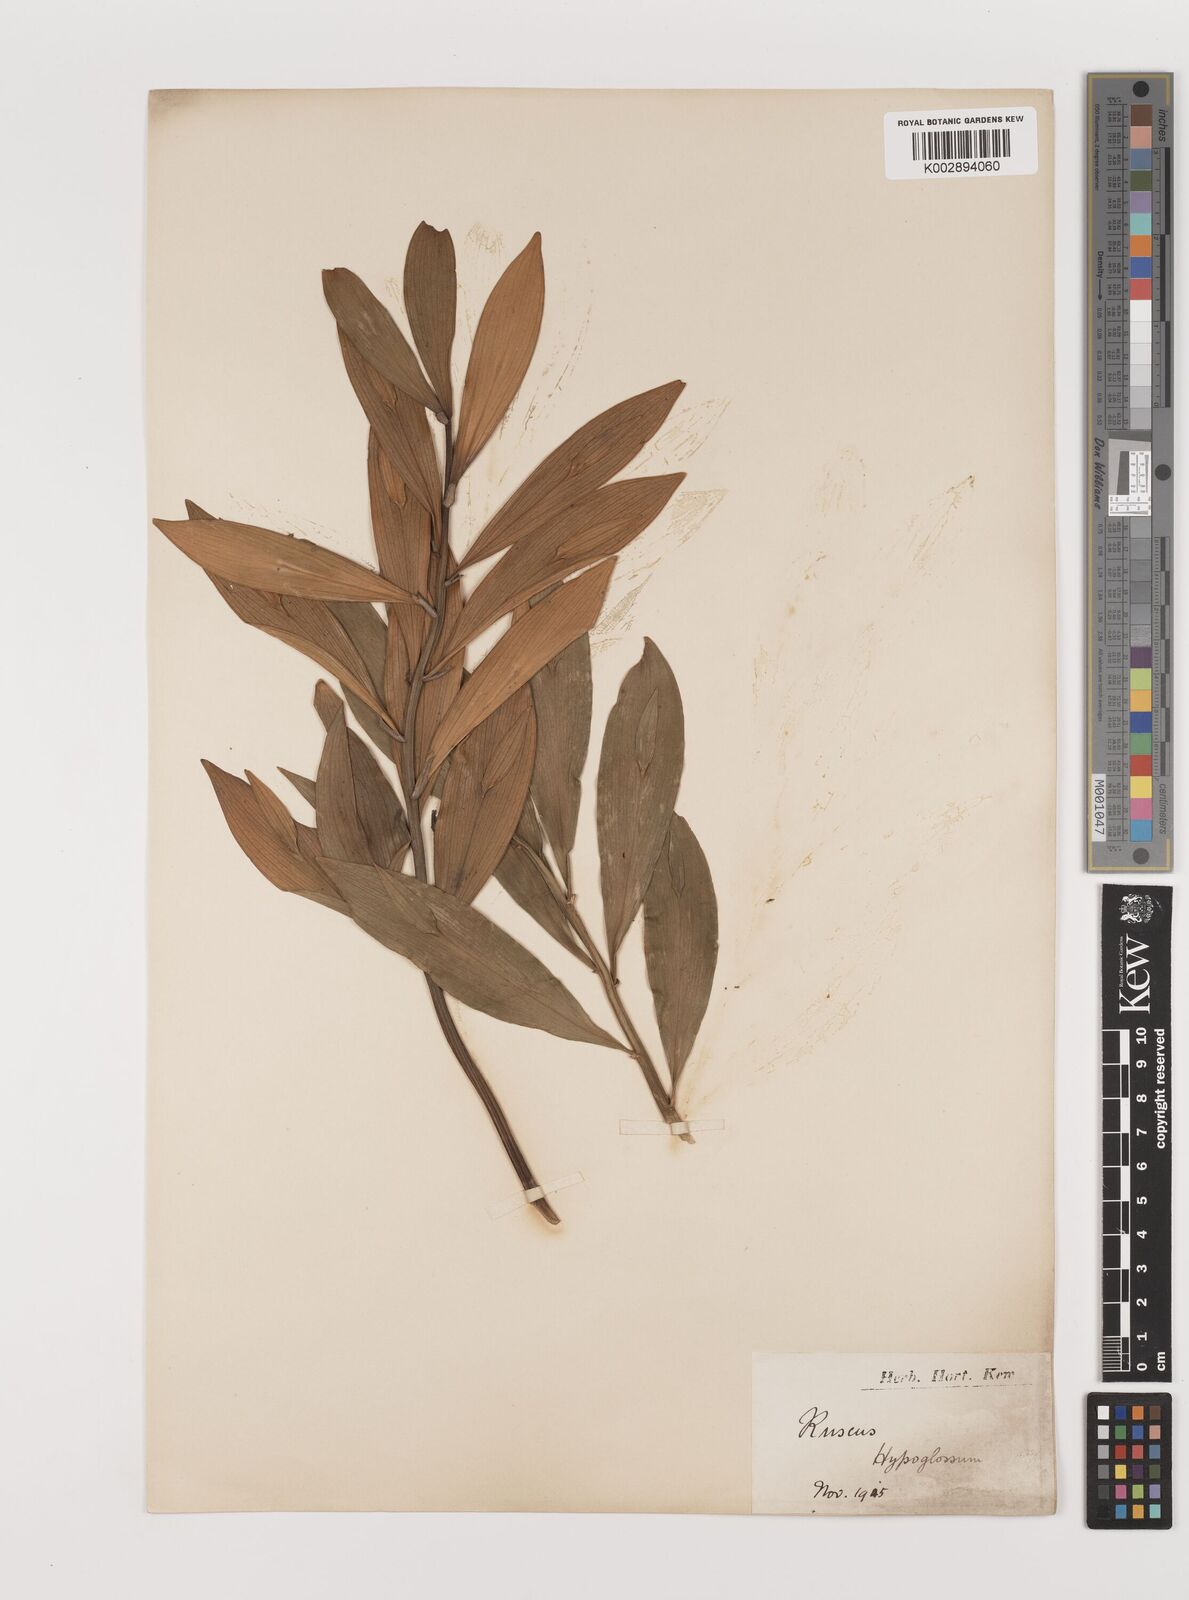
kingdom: Plantae
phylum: Tracheophyta
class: Liliopsida
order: Asparagales
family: Asparagaceae
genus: Ruscus
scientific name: Ruscus hypoglossum
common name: Spineless butcher's-broom
